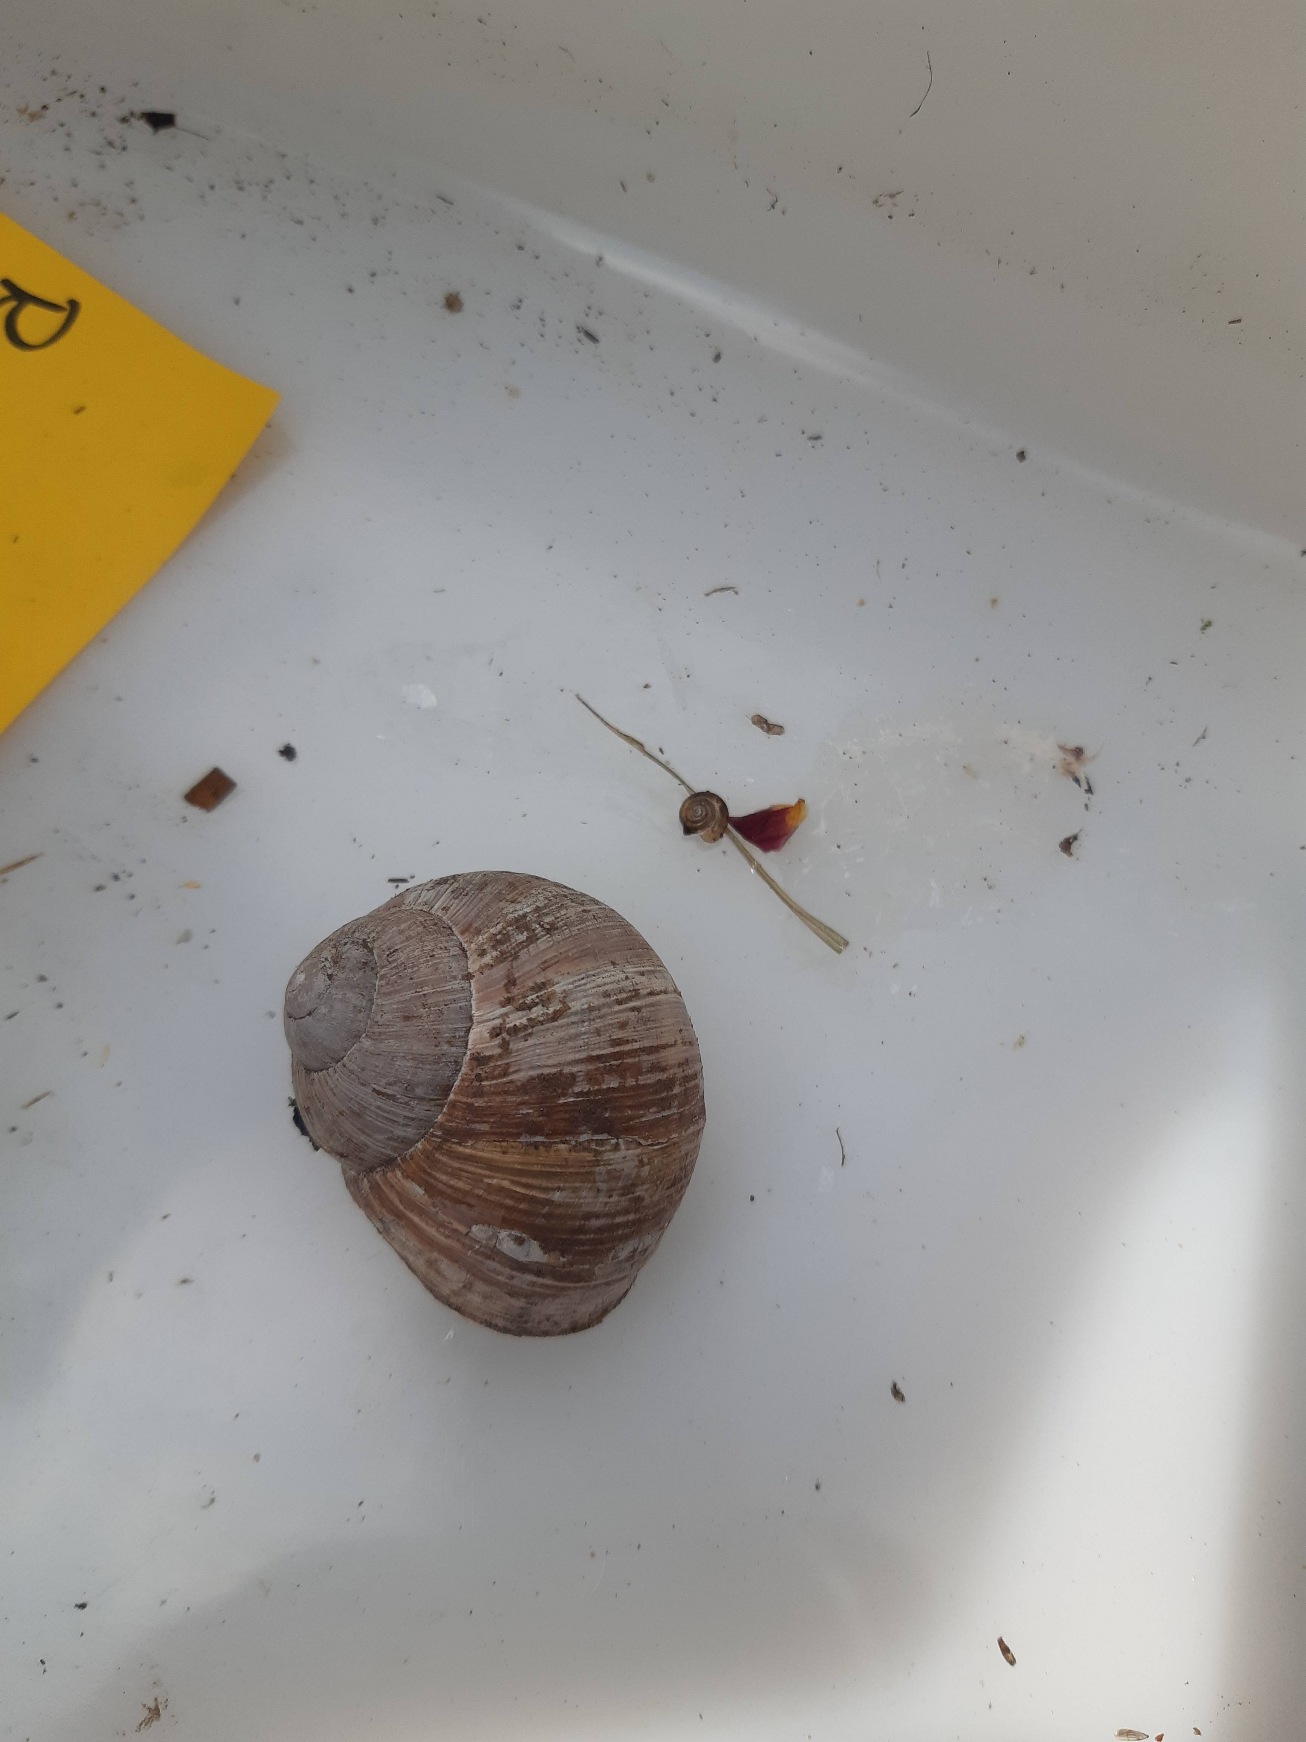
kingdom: Animalia
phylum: Mollusca
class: Gastropoda
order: Stylommatophora
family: Helicidae
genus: Helix
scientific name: Helix pomatia
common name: Vinbjergsnegl
